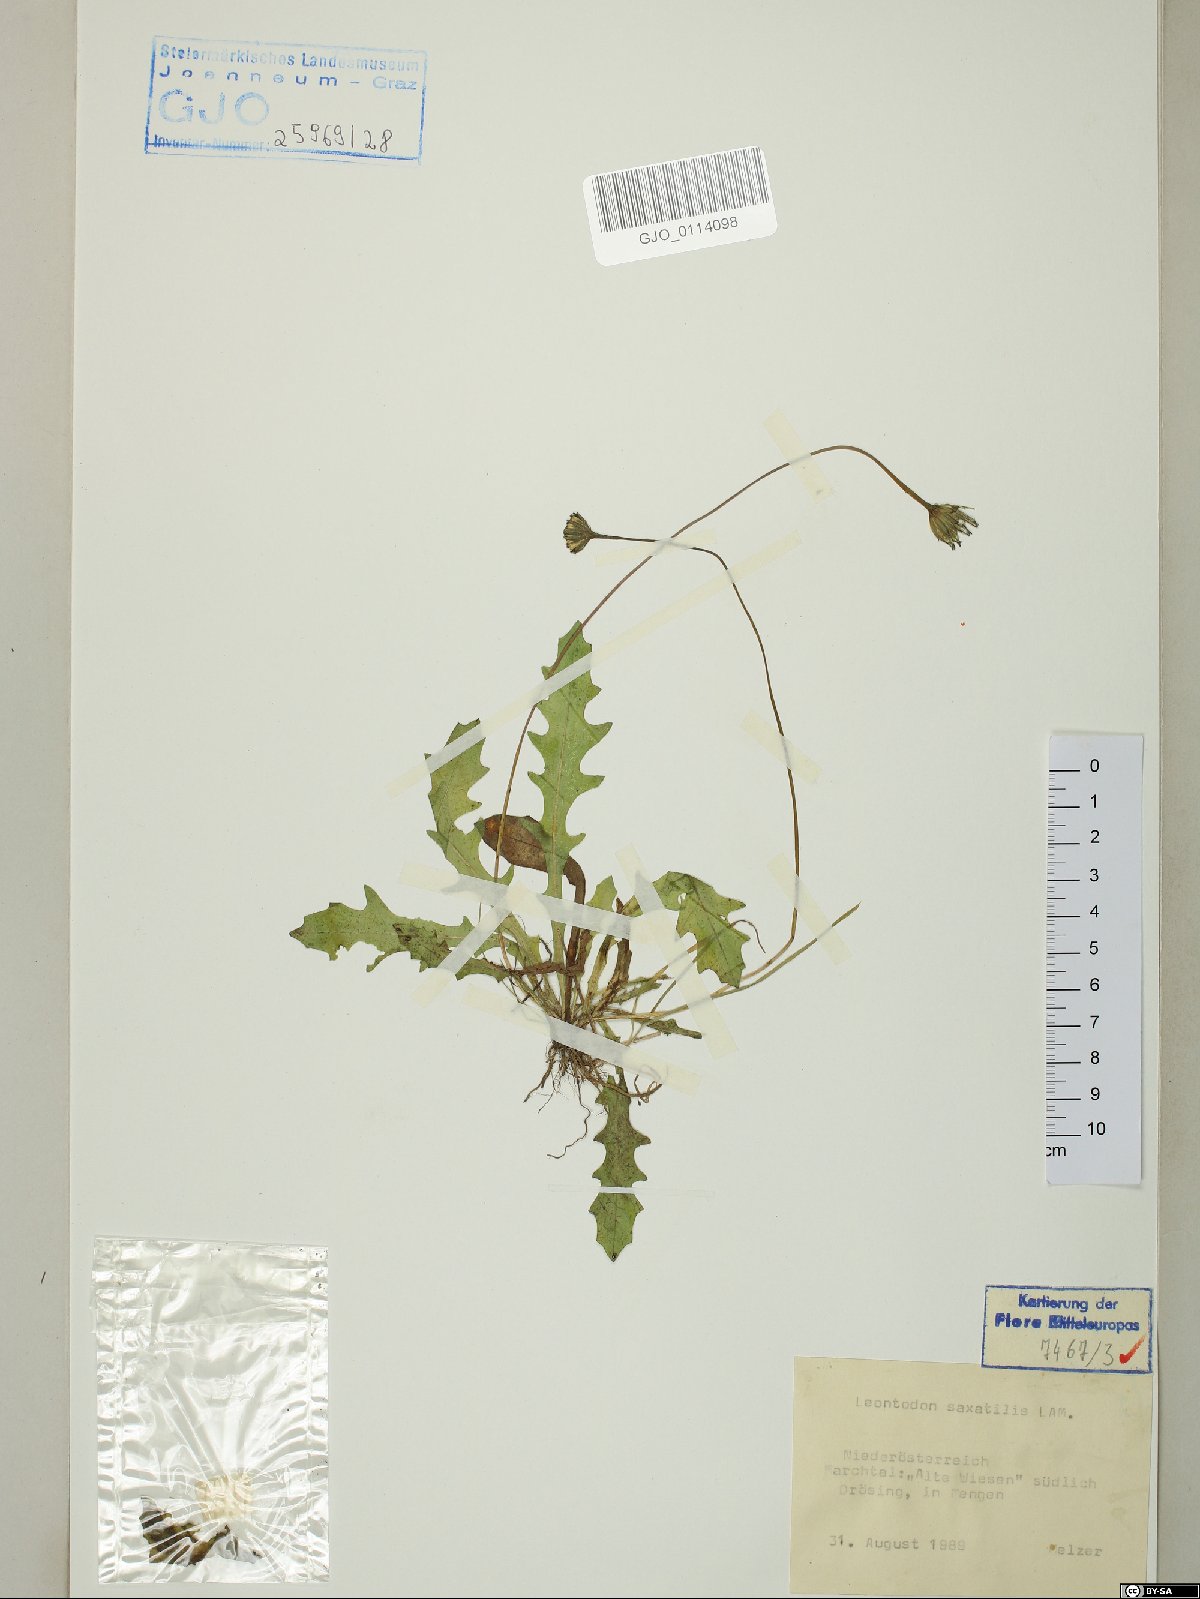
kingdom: Plantae
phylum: Tracheophyta
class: Magnoliopsida
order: Asterales
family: Asteraceae
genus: Thrincia
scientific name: Thrincia saxatilis
